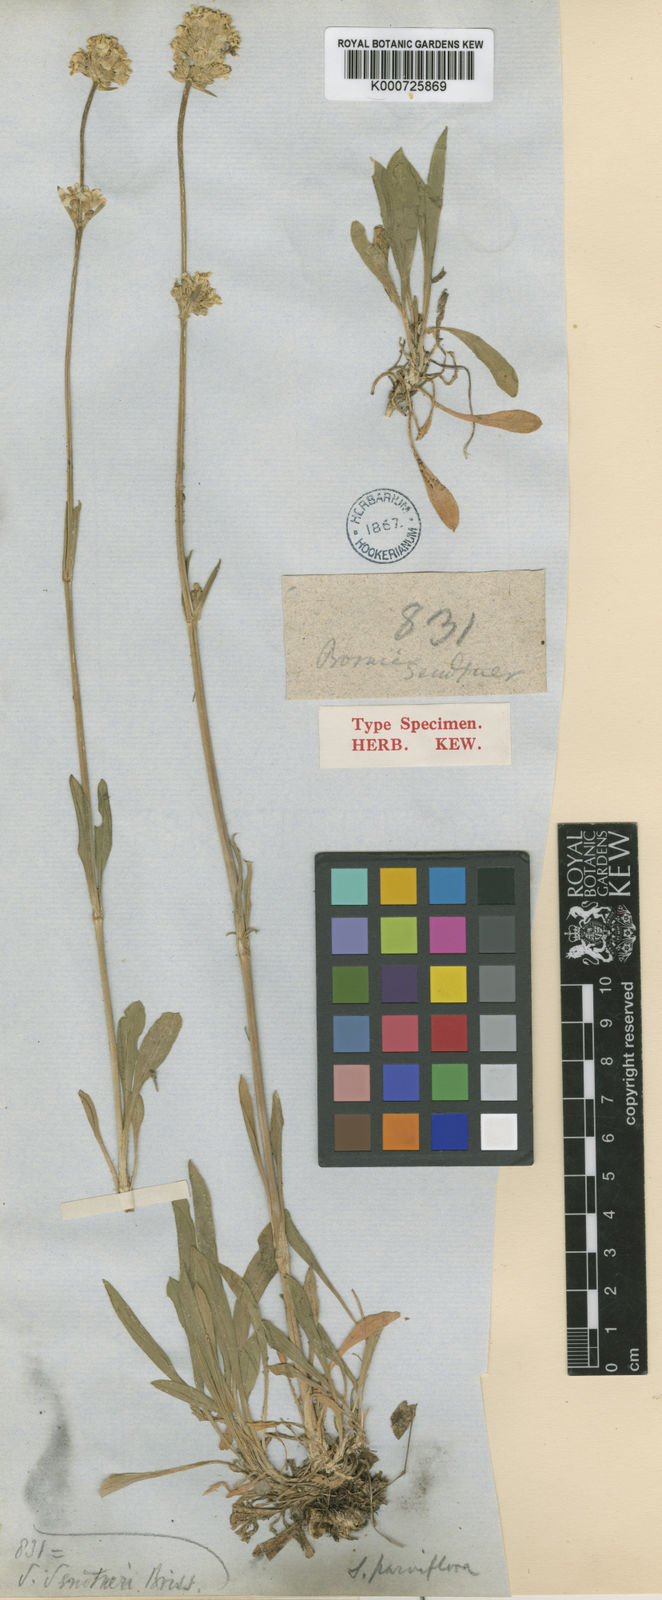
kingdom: Plantae
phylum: Tracheophyta
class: Magnoliopsida
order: Caryophyllales
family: Caryophyllaceae
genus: Silene
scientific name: Silene sendtneri
